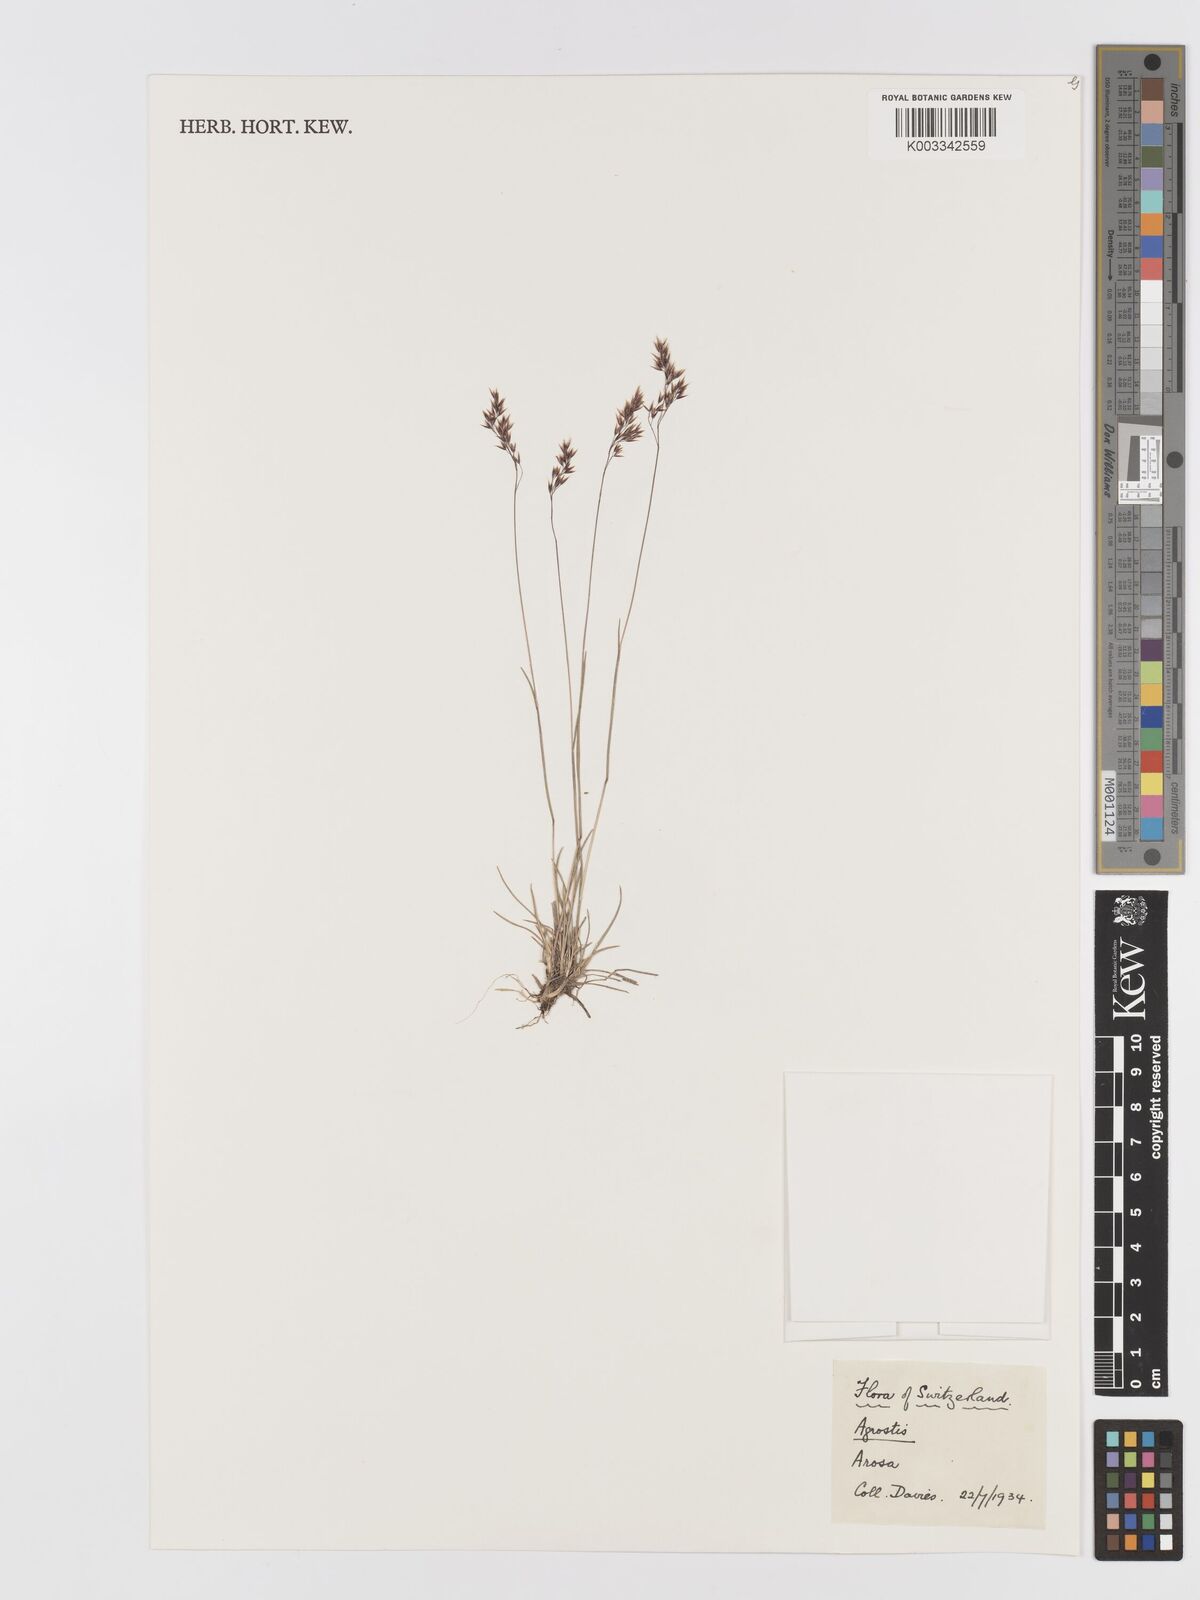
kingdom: Plantae
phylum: Tracheophyta
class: Liliopsida
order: Poales
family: Poaceae
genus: Agrostis
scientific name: Agrostis
